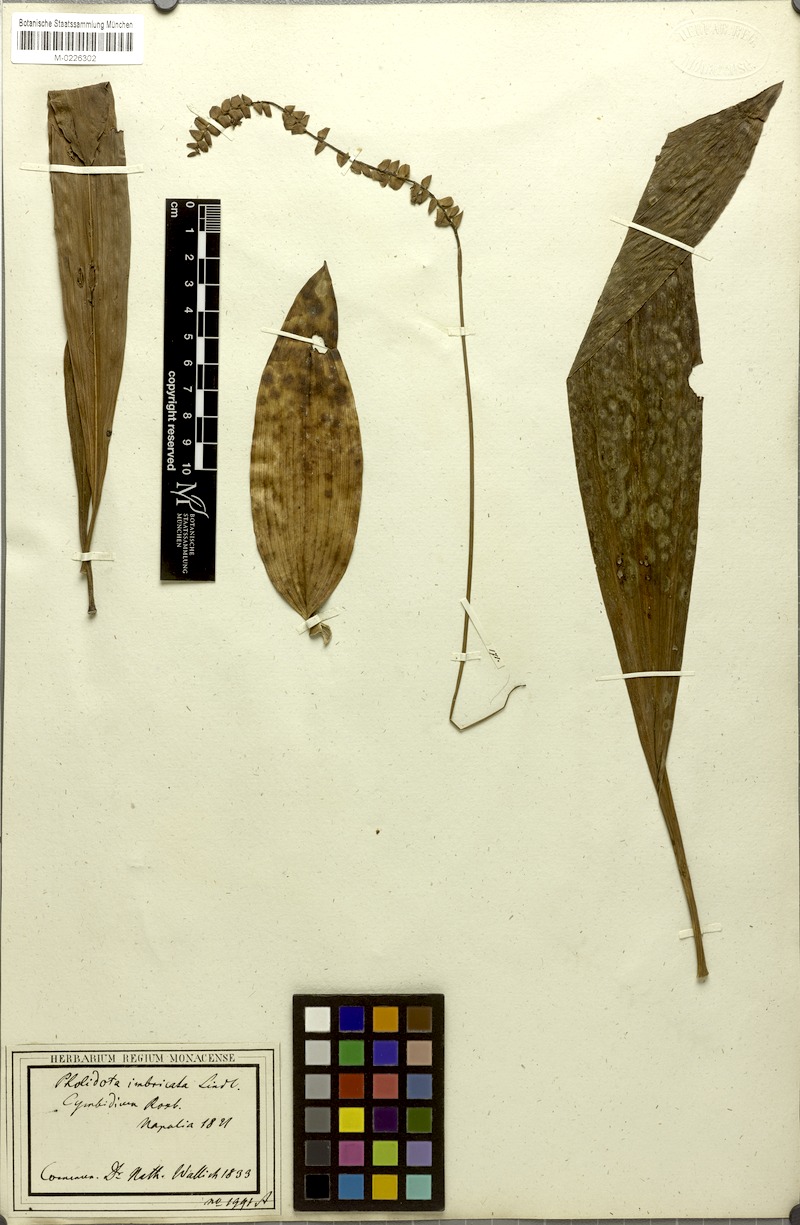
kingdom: Plantae
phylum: Tracheophyta
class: Liliopsida
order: Asparagales
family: Orchidaceae
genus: Pholidota
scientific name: Pholidota imbricata
